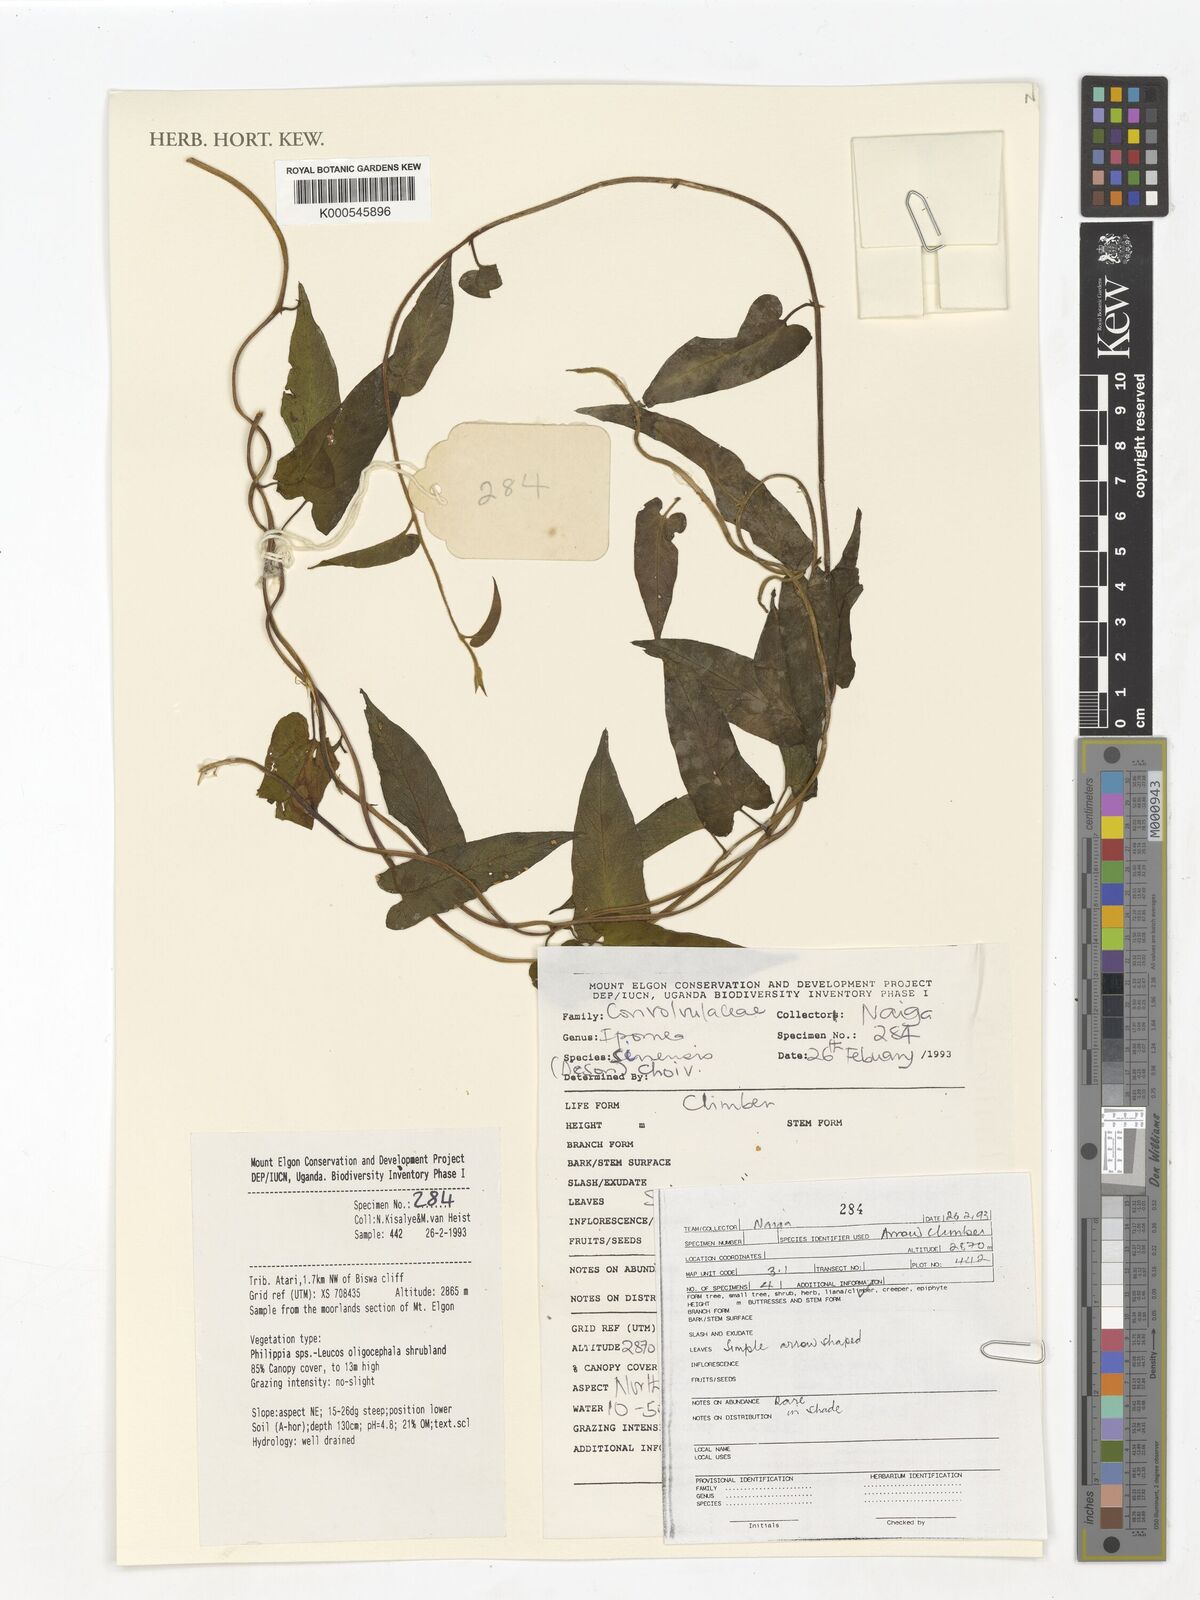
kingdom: Plantae
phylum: Tracheophyta
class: Magnoliopsida
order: Solanales
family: Convolvulaceae
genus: Ipomoea
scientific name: Ipomoea sinensis
